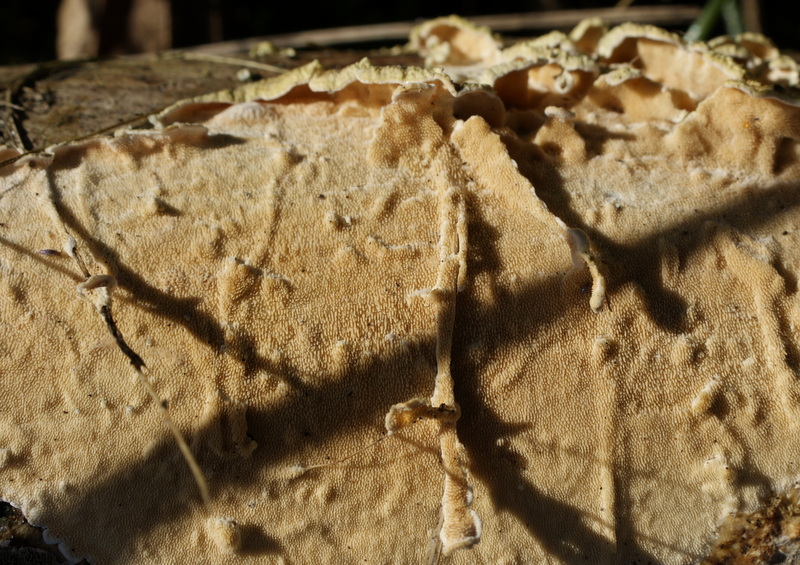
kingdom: Fungi
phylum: Basidiomycota
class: Agaricomycetes
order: Polyporales
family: Steccherinaceae
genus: Steccherinum
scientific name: Steccherinum ochraceum
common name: almindelig skønpig
